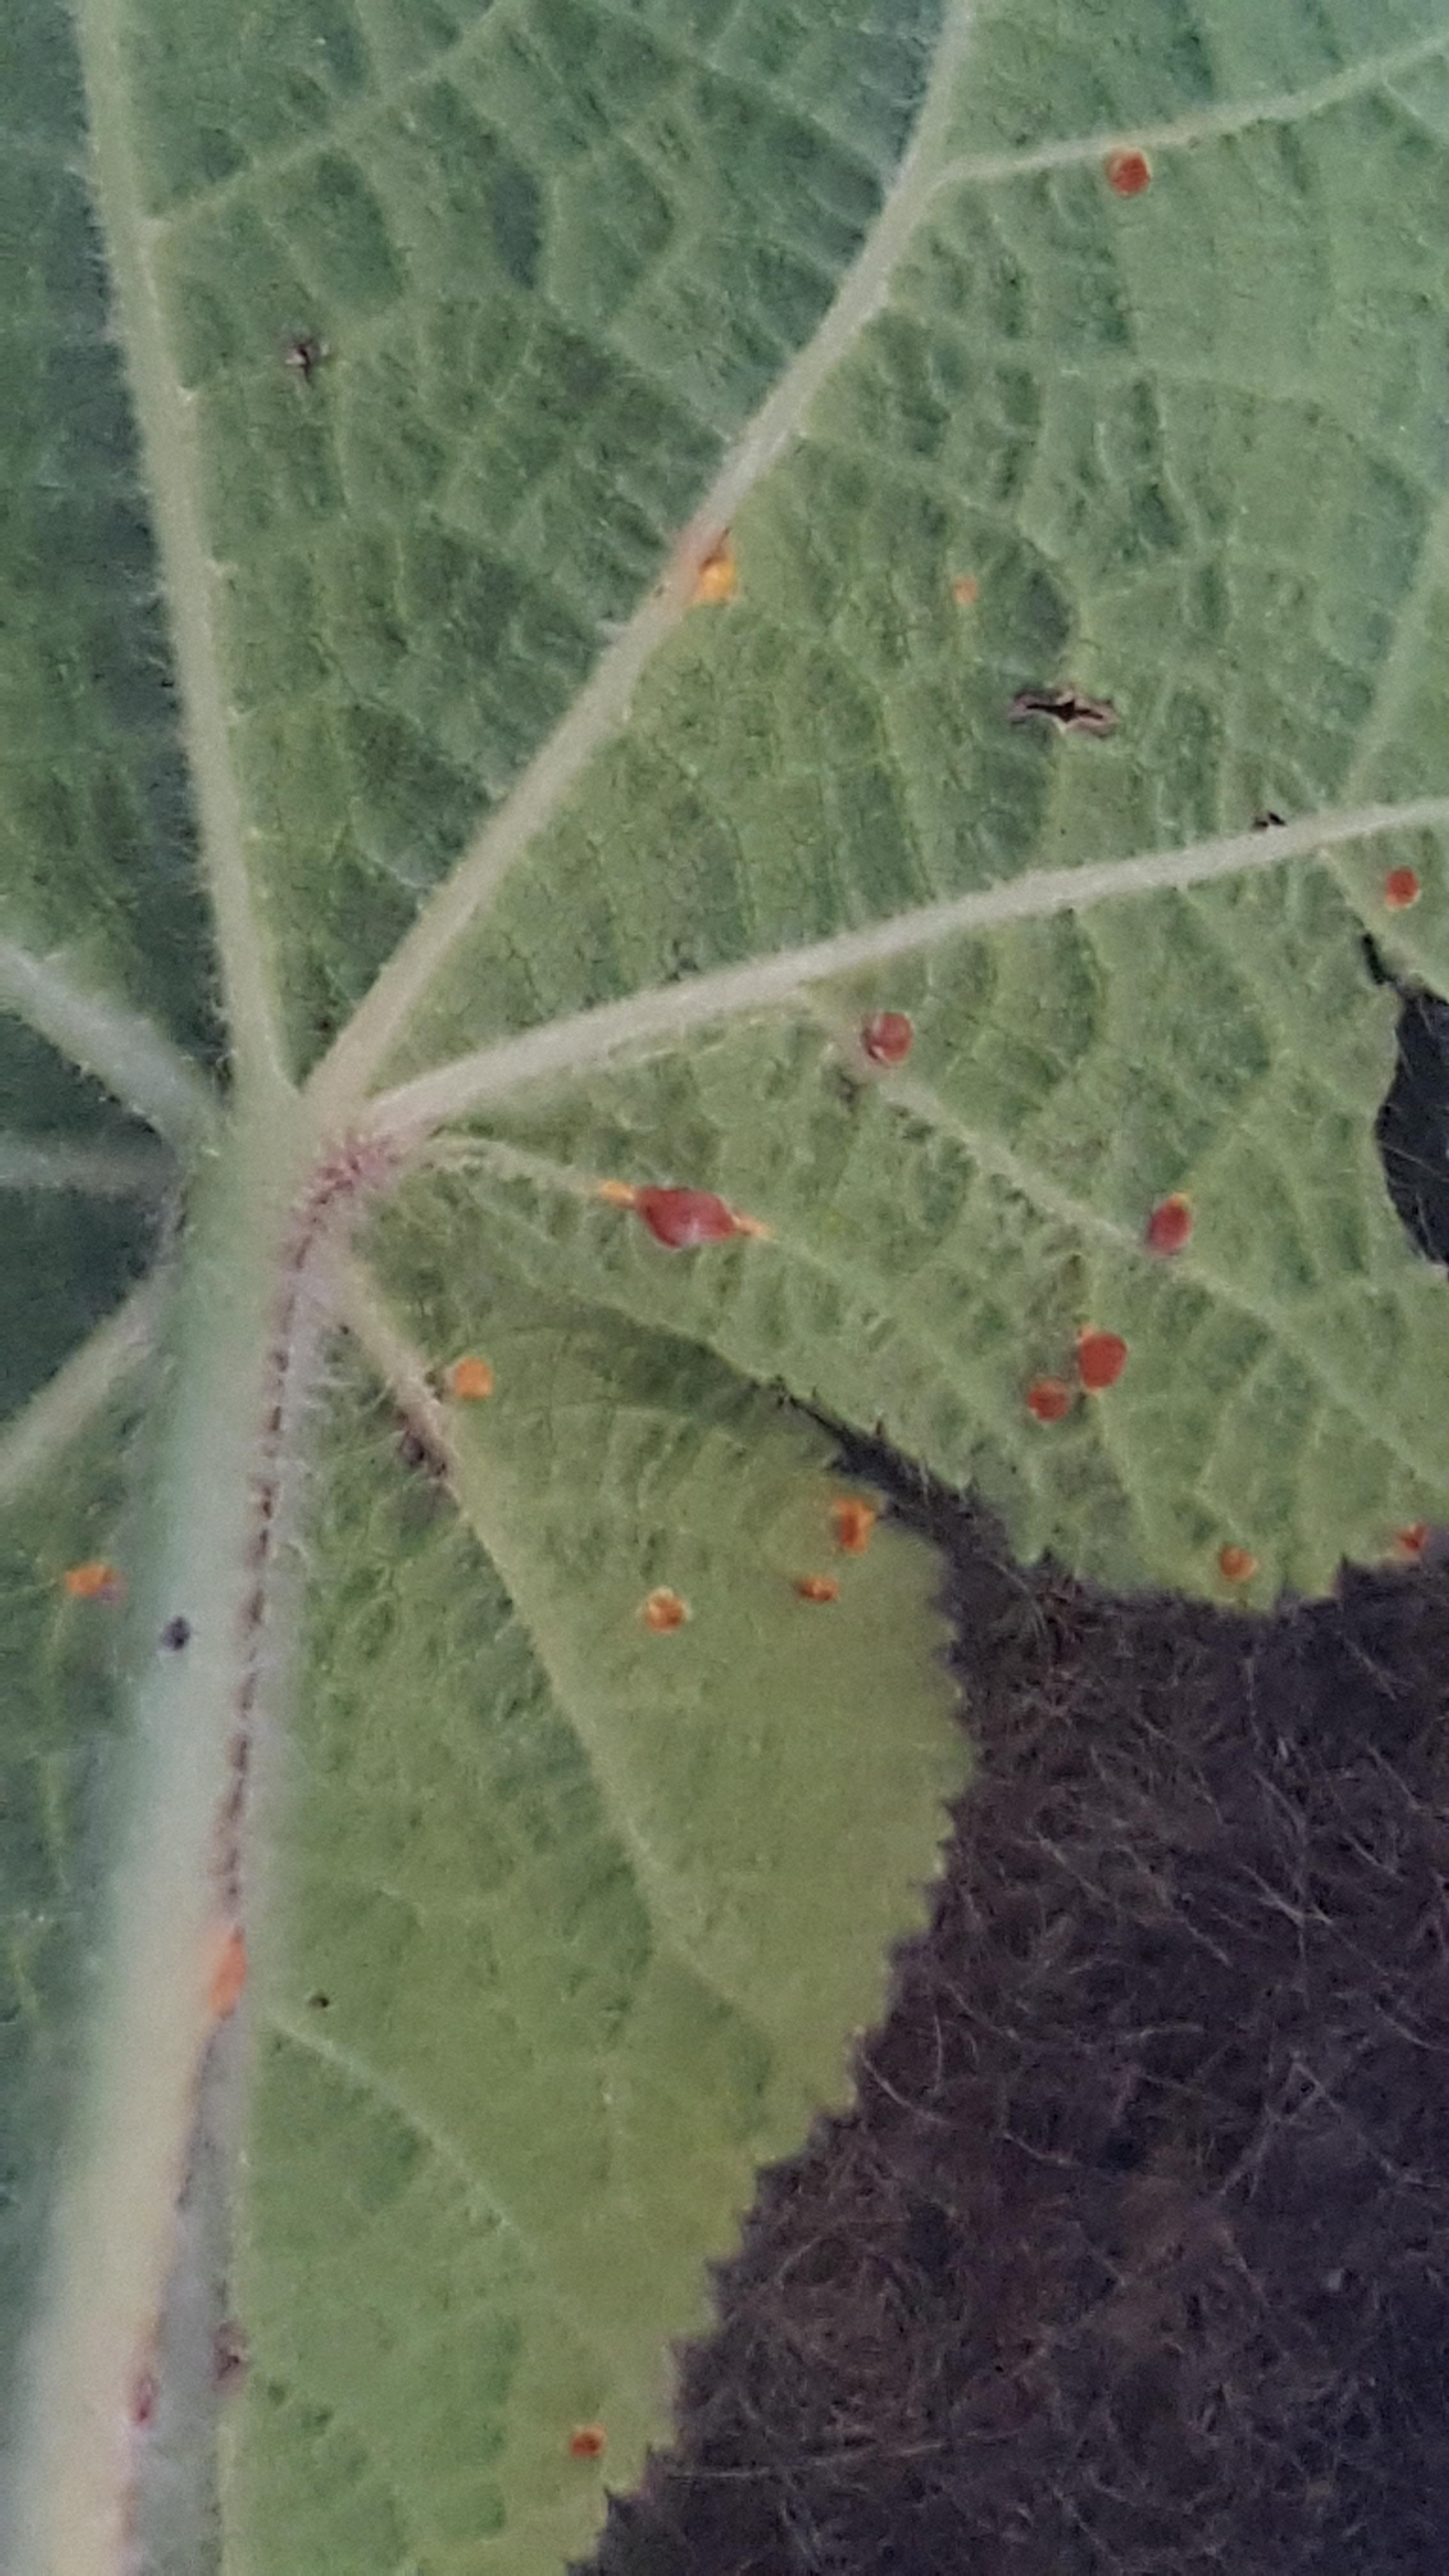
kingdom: Fungi
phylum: Basidiomycota
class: Pucciniomycetes
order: Pucciniales
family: Pucciniaceae
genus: Puccinia
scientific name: Puccinia malvacearum
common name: stokrose-tvecellerust
